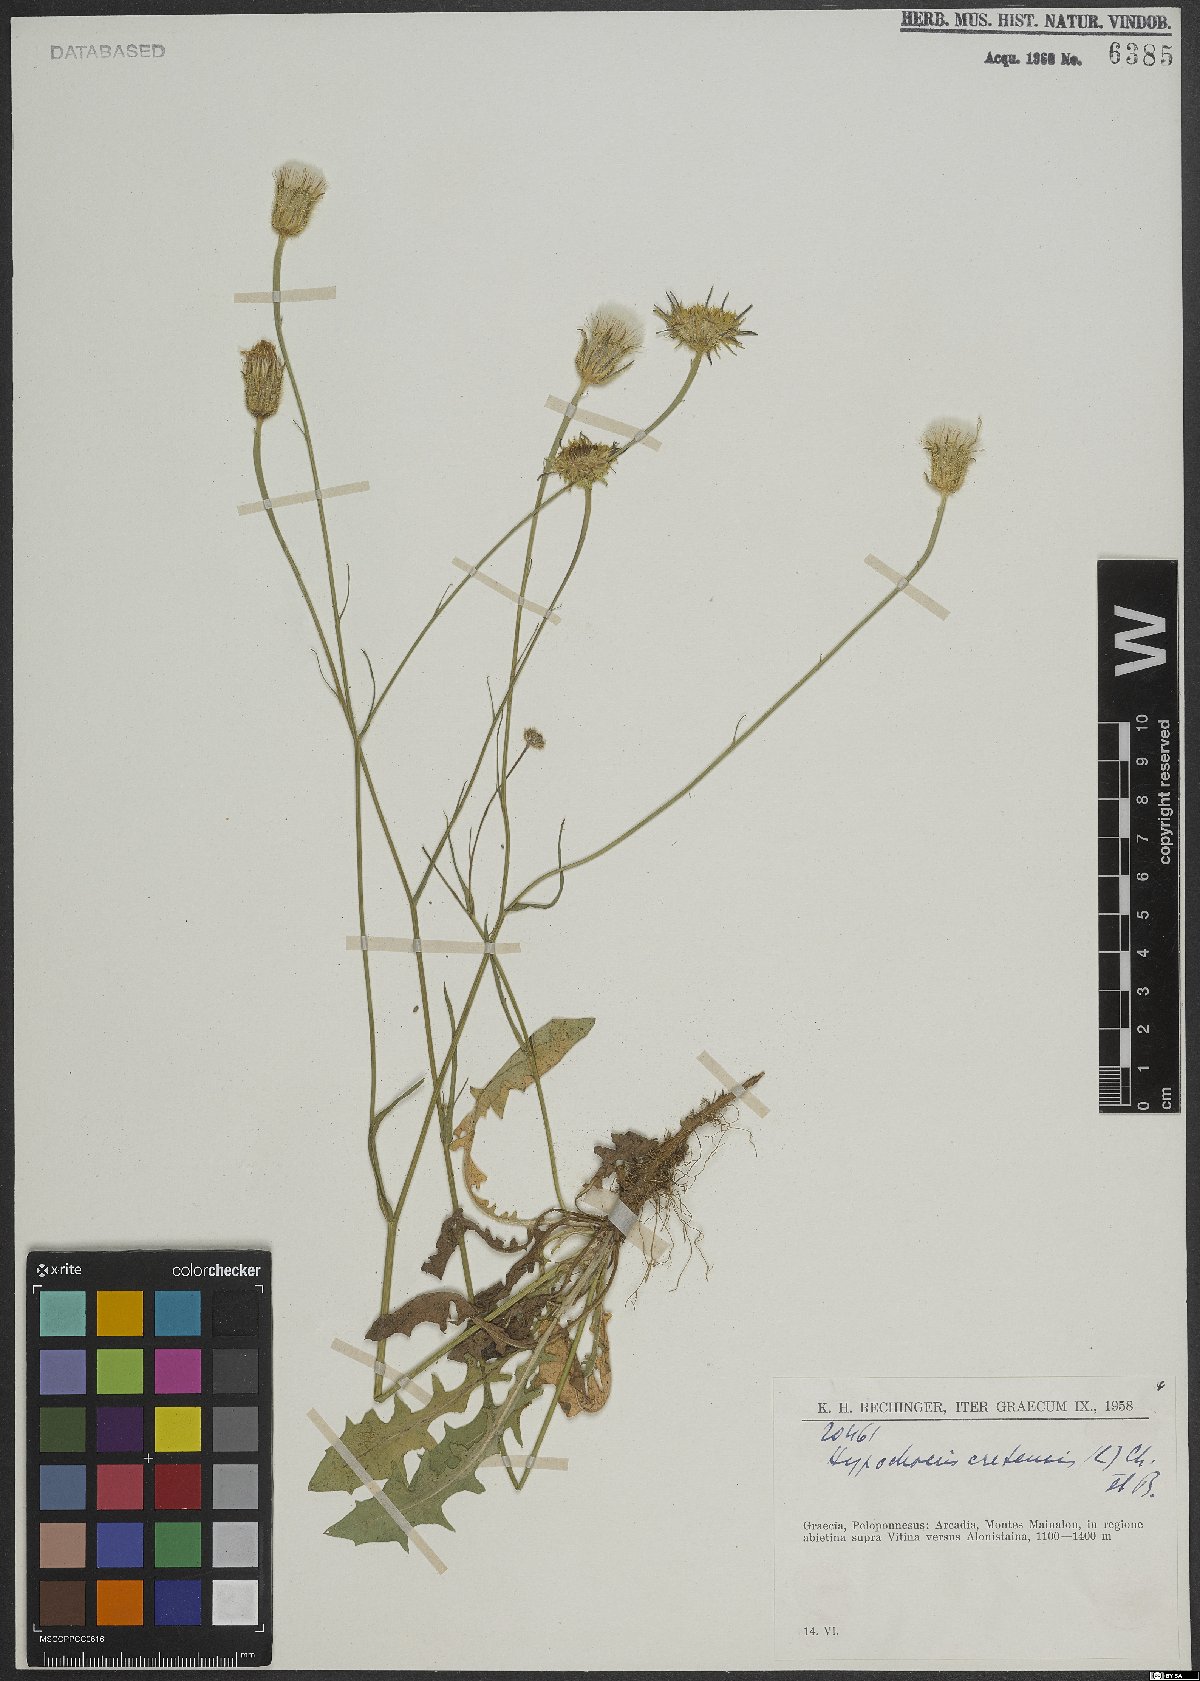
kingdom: Plantae
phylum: Tracheophyta
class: Magnoliopsida
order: Asterales
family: Asteraceae
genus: Hypochaeris
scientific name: Hypochaeris cretensis
